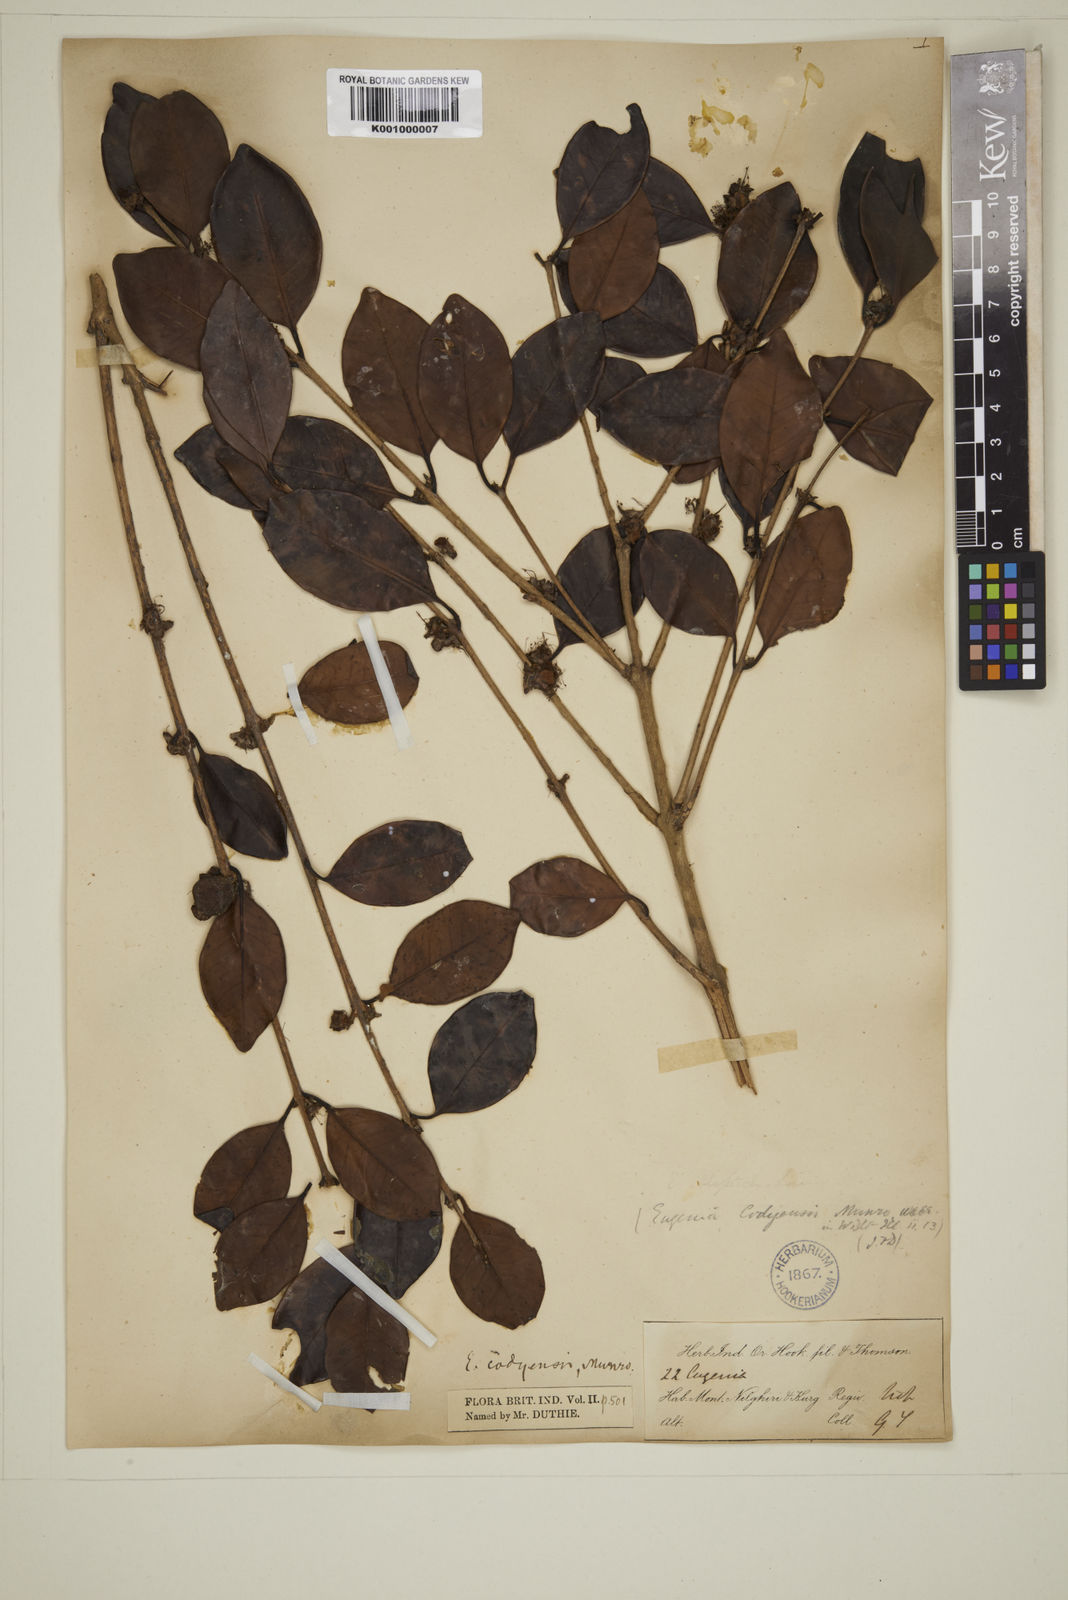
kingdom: Plantae
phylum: Tracheophyta
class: Magnoliopsida
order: Myrtales
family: Myrtaceae
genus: Eugenia
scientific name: Eugenia codyensis
